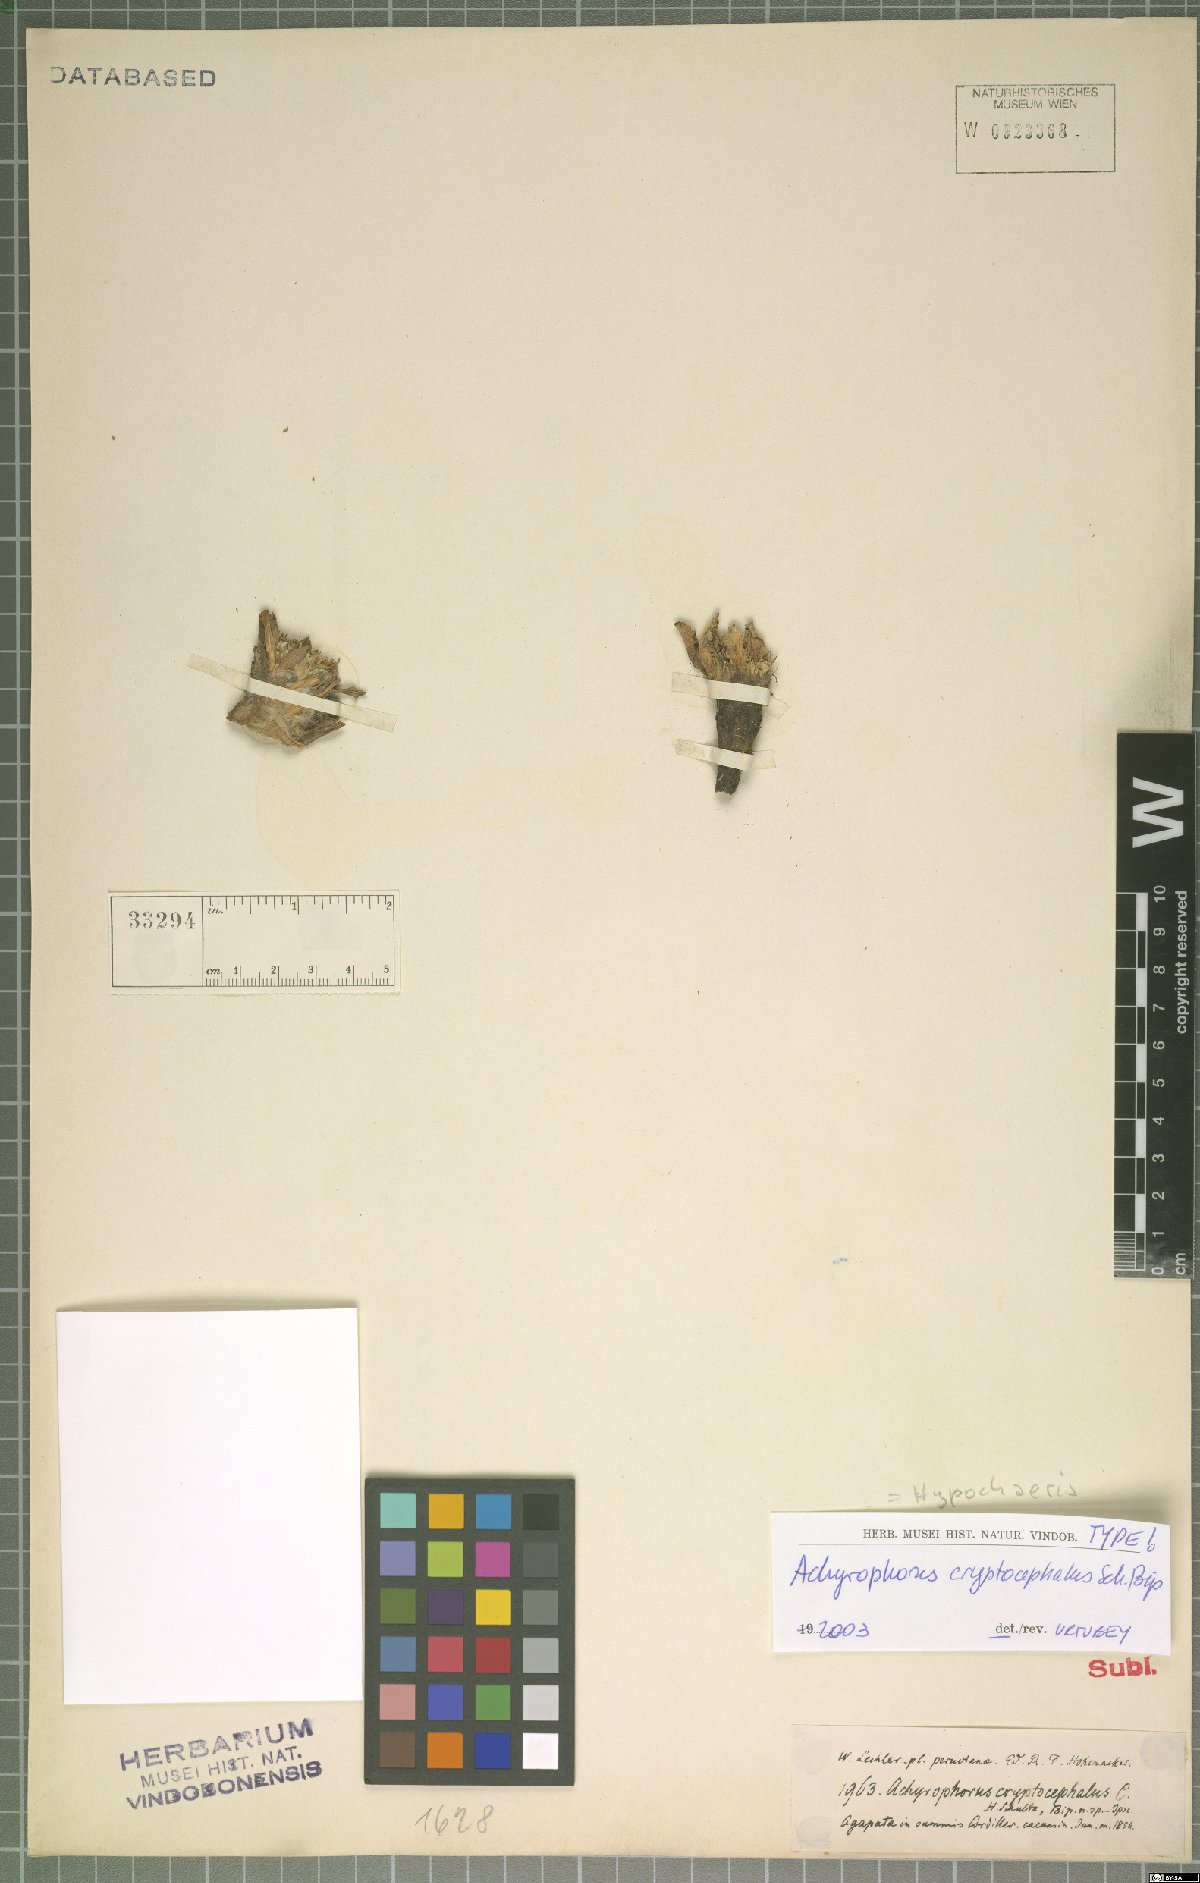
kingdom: Plantae
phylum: Tracheophyta
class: Magnoliopsida
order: Asterales
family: Asteraceae
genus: Hypochaeris
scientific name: Hypochaeris eriolaena
